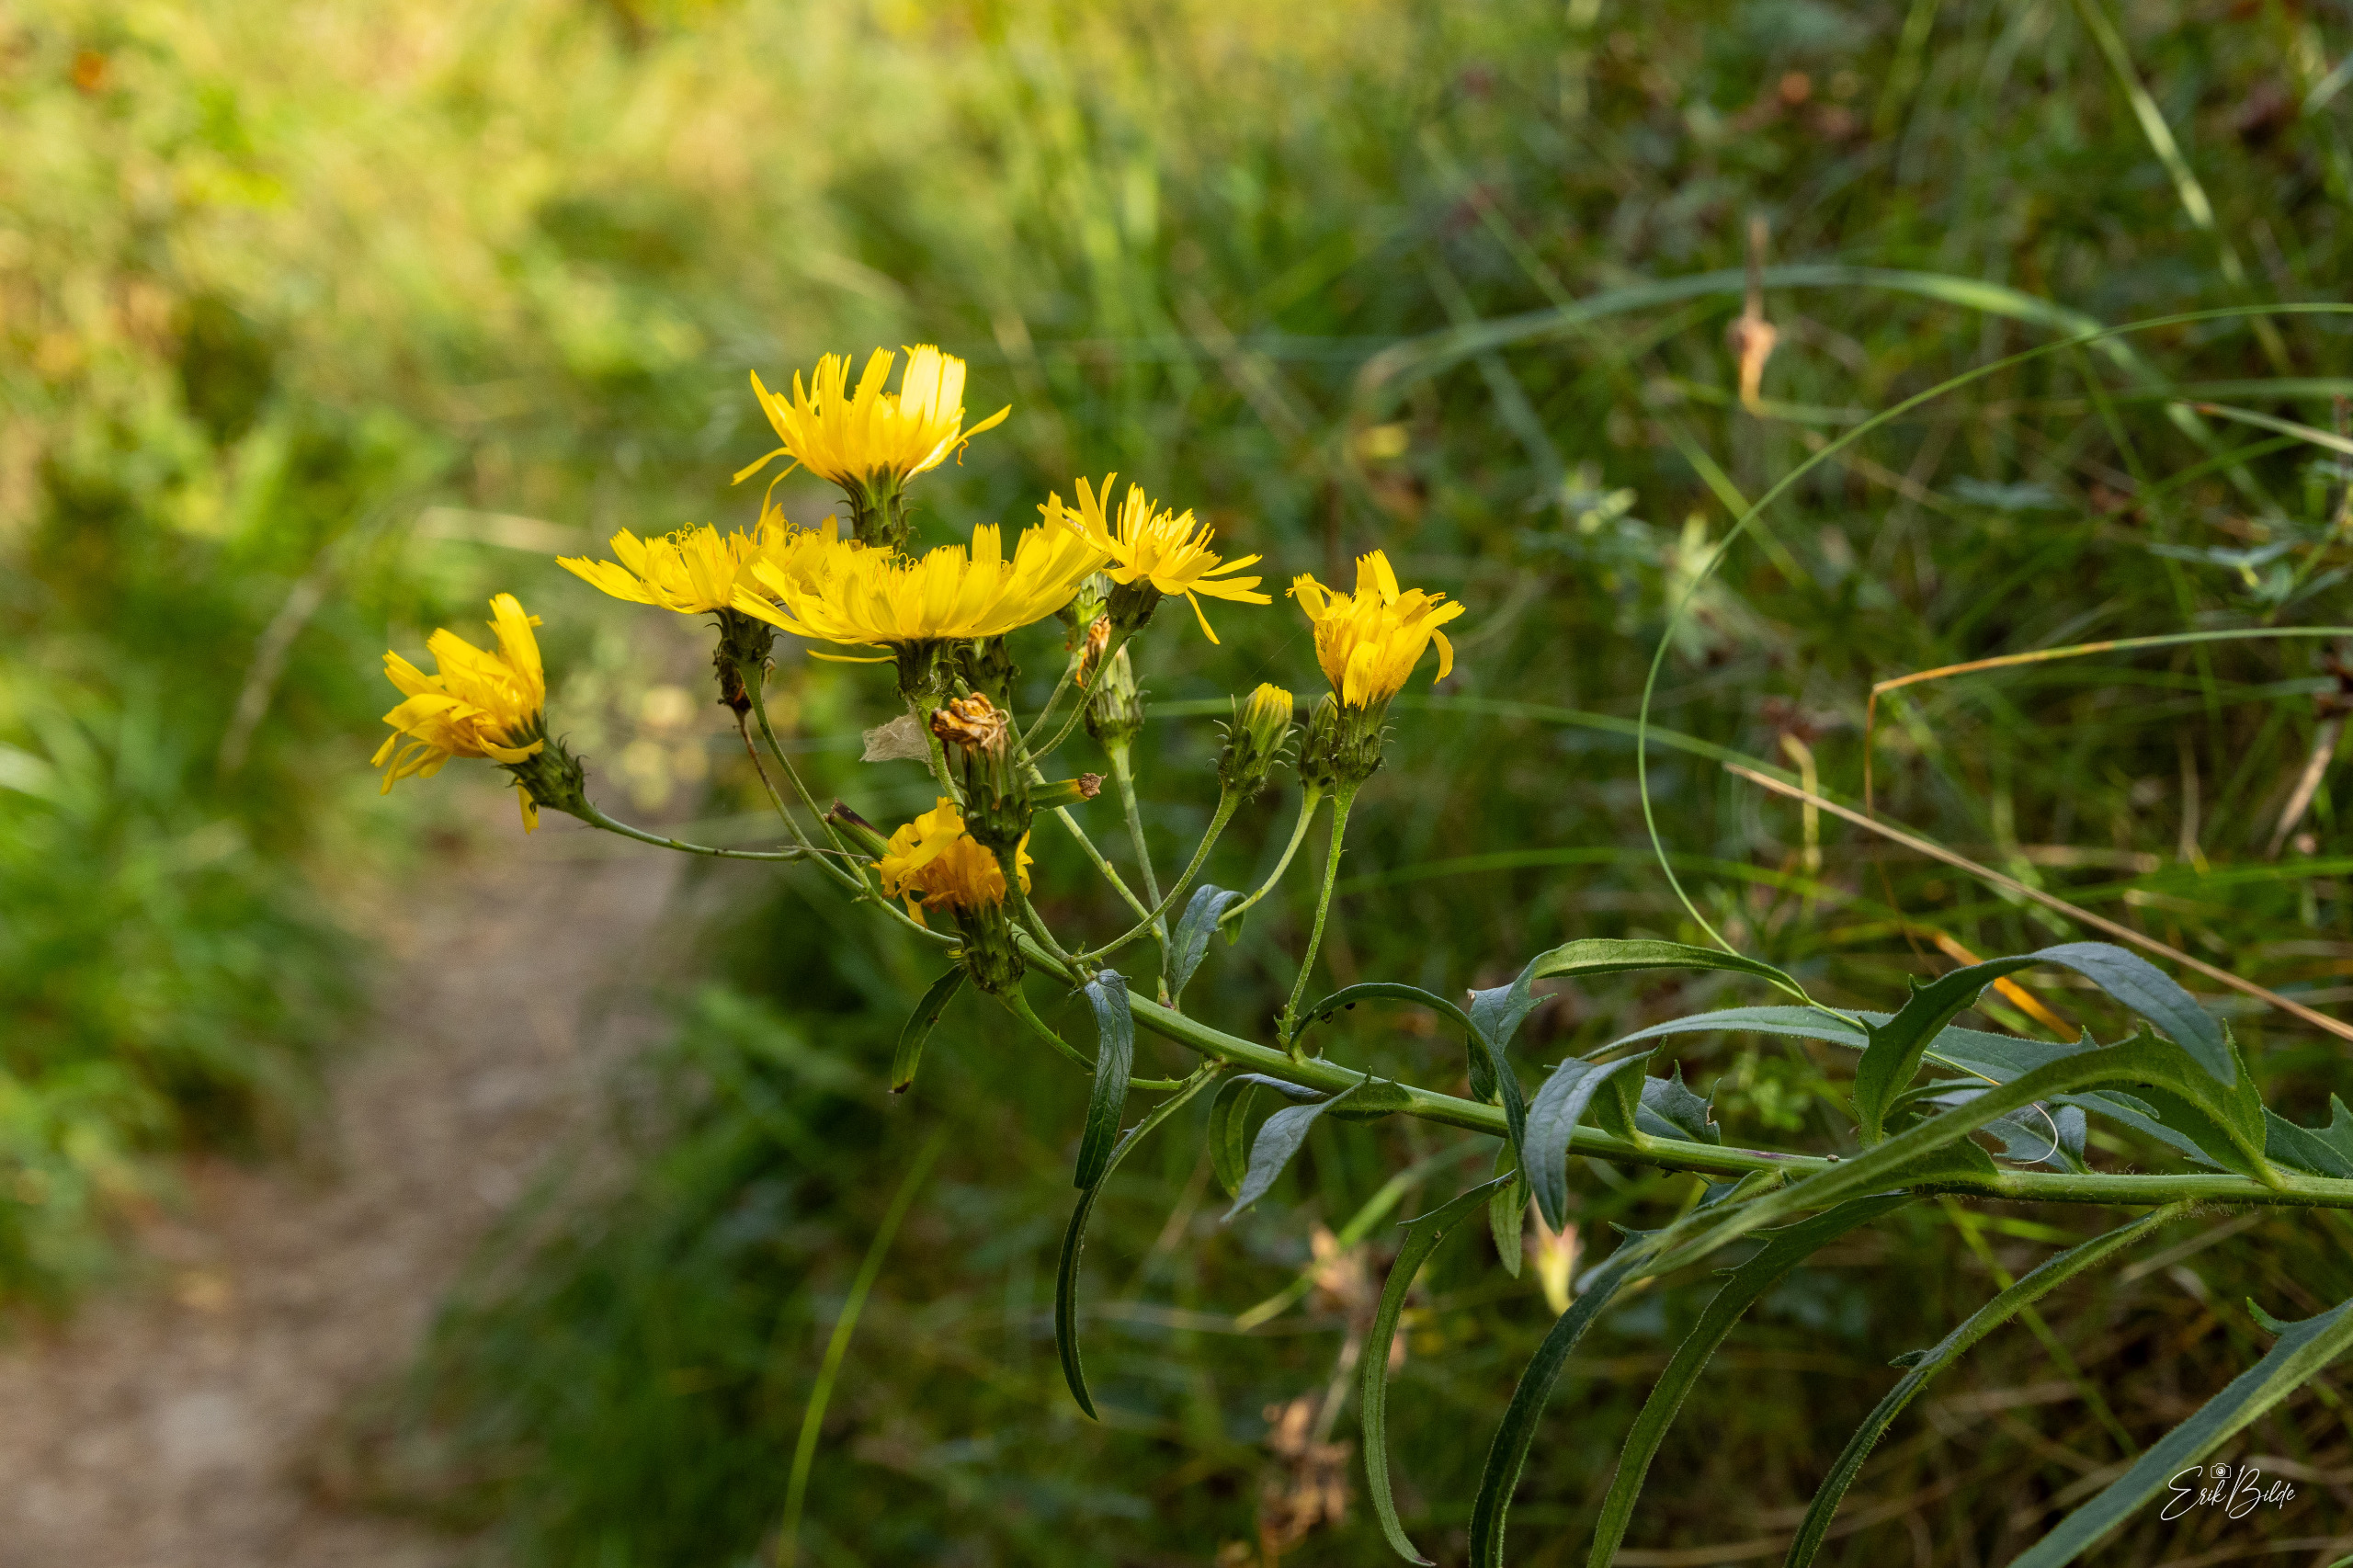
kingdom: Plantae
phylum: Tracheophyta
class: Magnoliopsida
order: Asterales
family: Asteraceae
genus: Hieracium
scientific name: Hieracium umbellatum
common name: Smalbladet høgeurt
